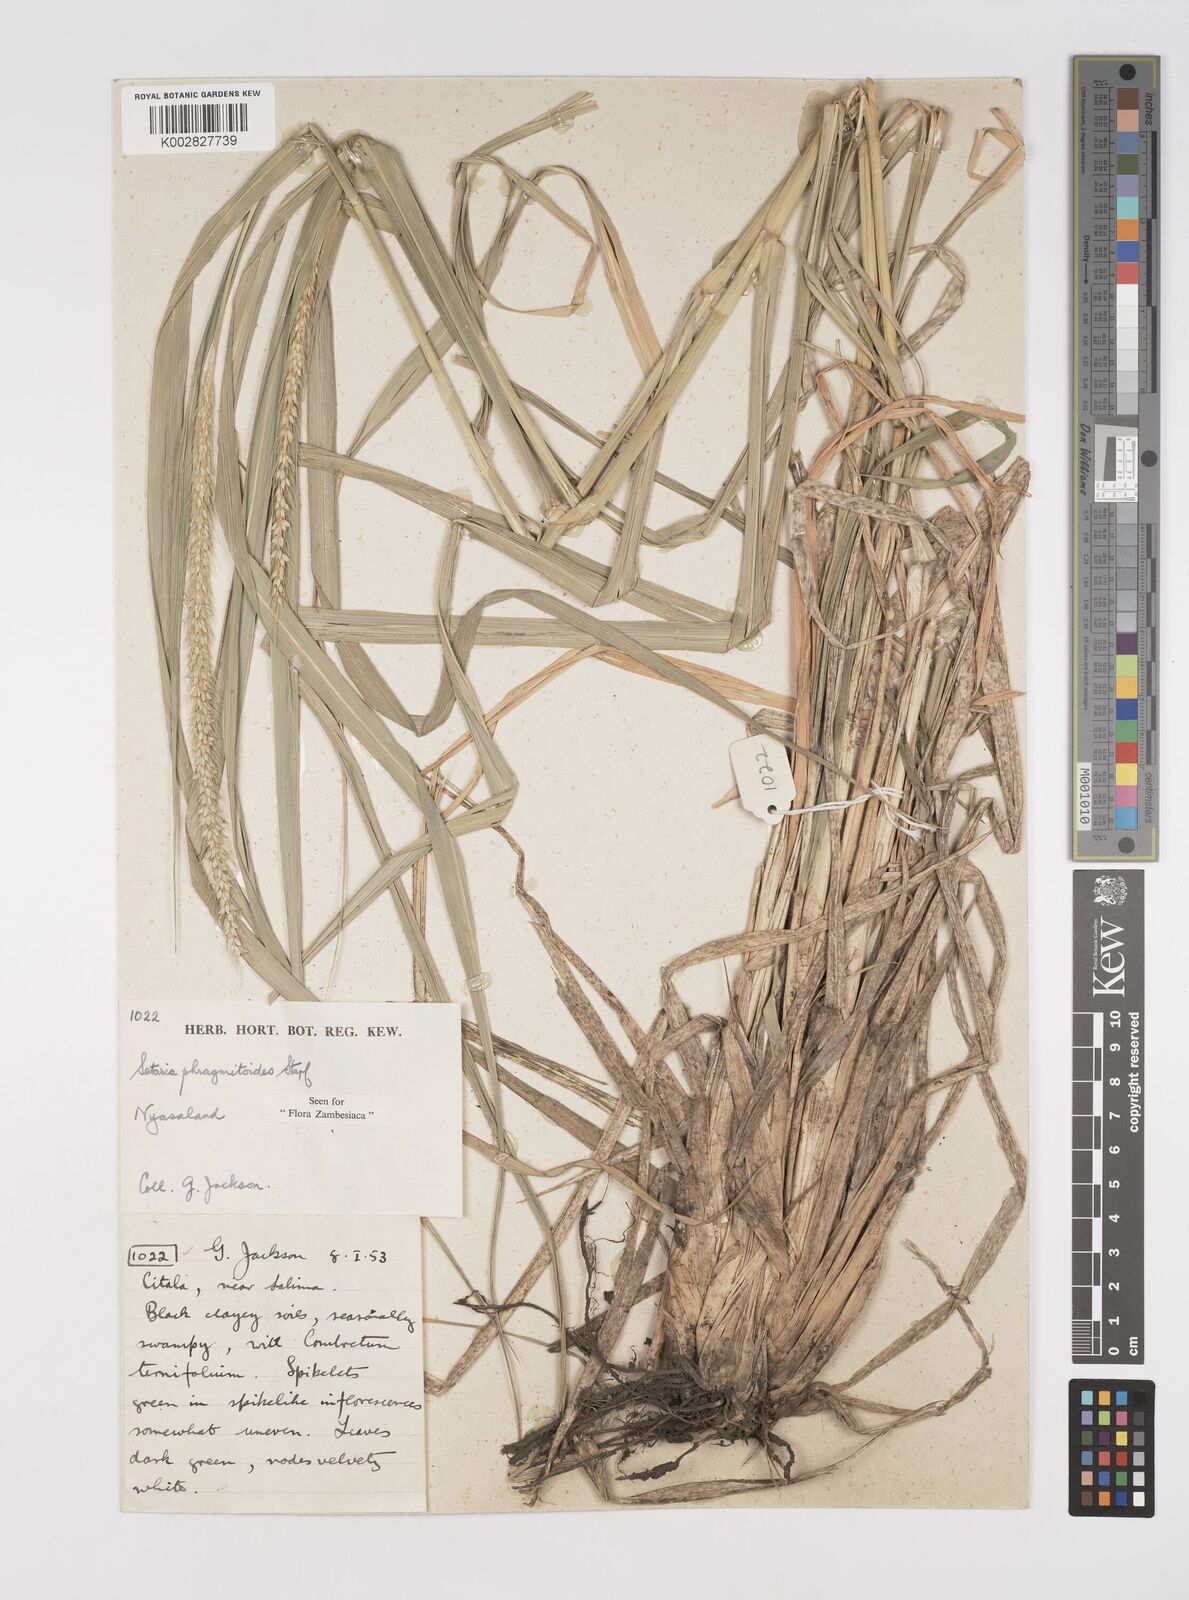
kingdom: Plantae
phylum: Tracheophyta
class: Liliopsida
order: Poales
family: Poaceae
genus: Setaria
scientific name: Setaria incrassata
